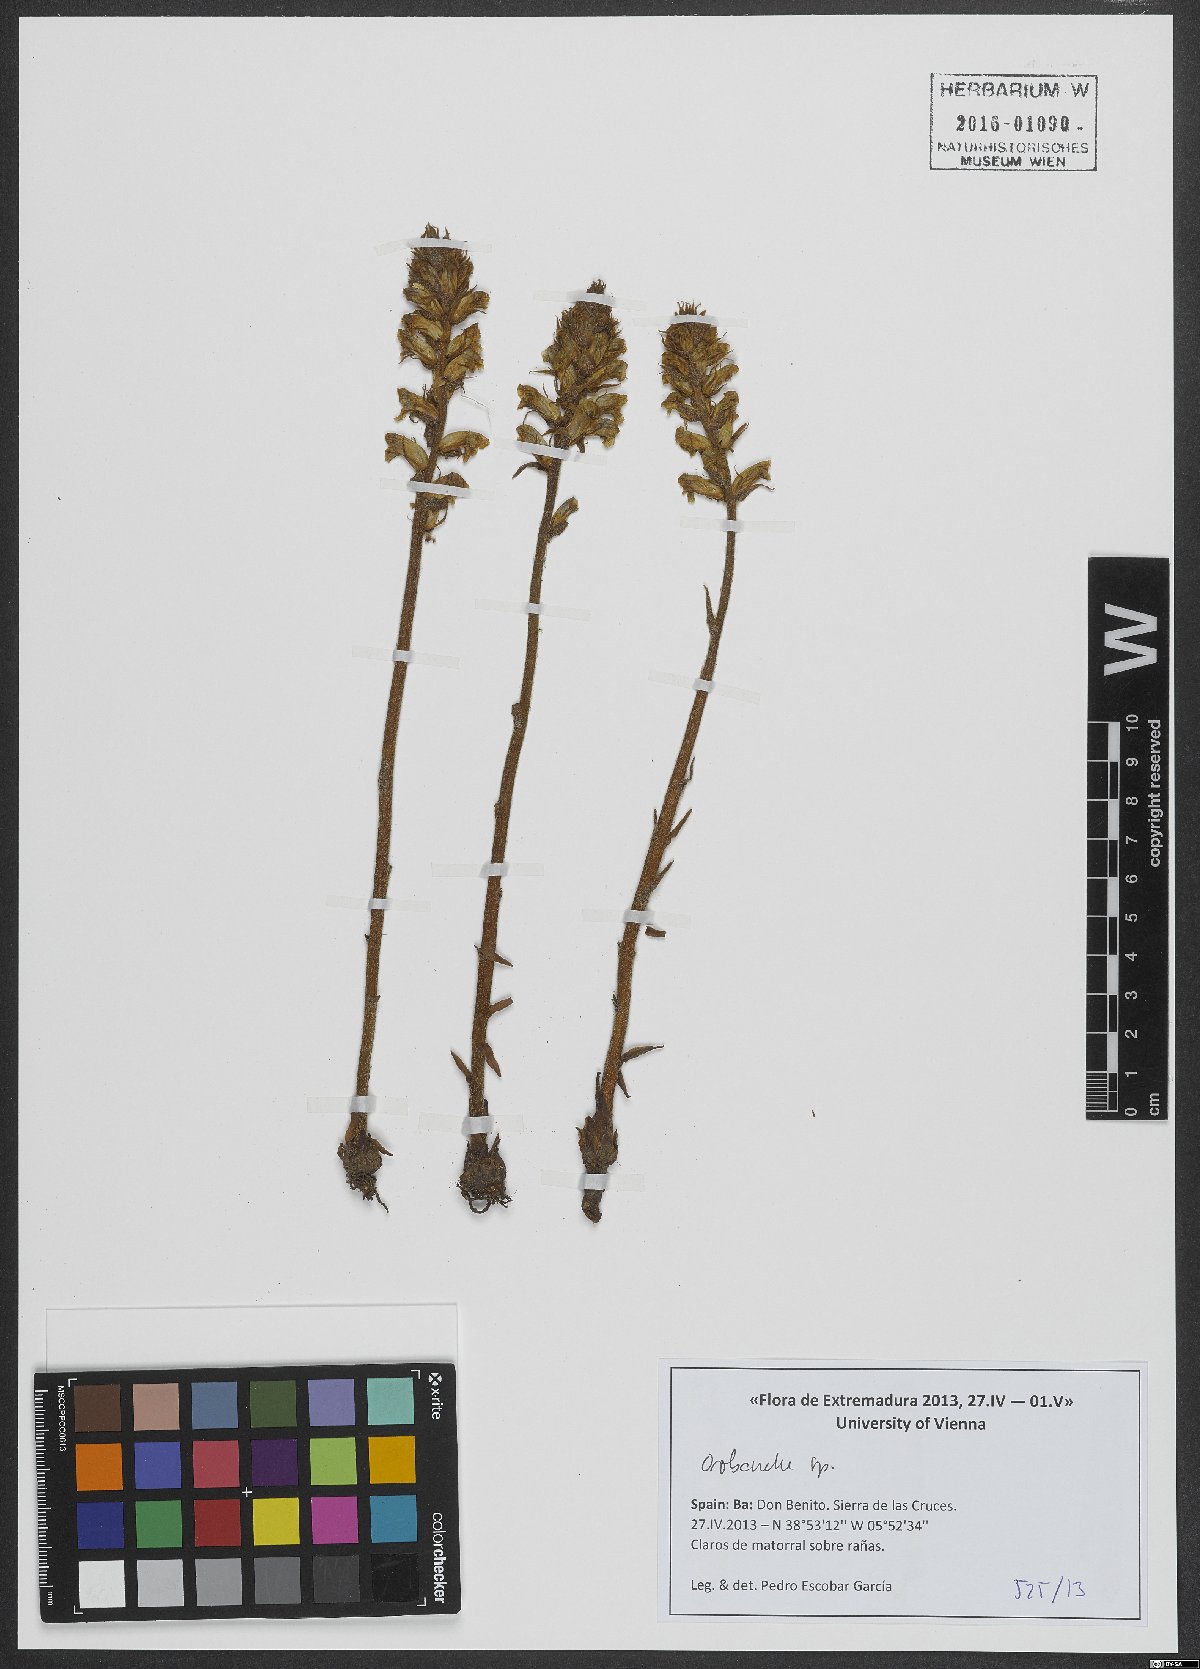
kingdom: Plantae
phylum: Tracheophyta
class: Magnoliopsida
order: Lamiales
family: Orobanchaceae
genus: Orobanche
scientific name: Orobanche
